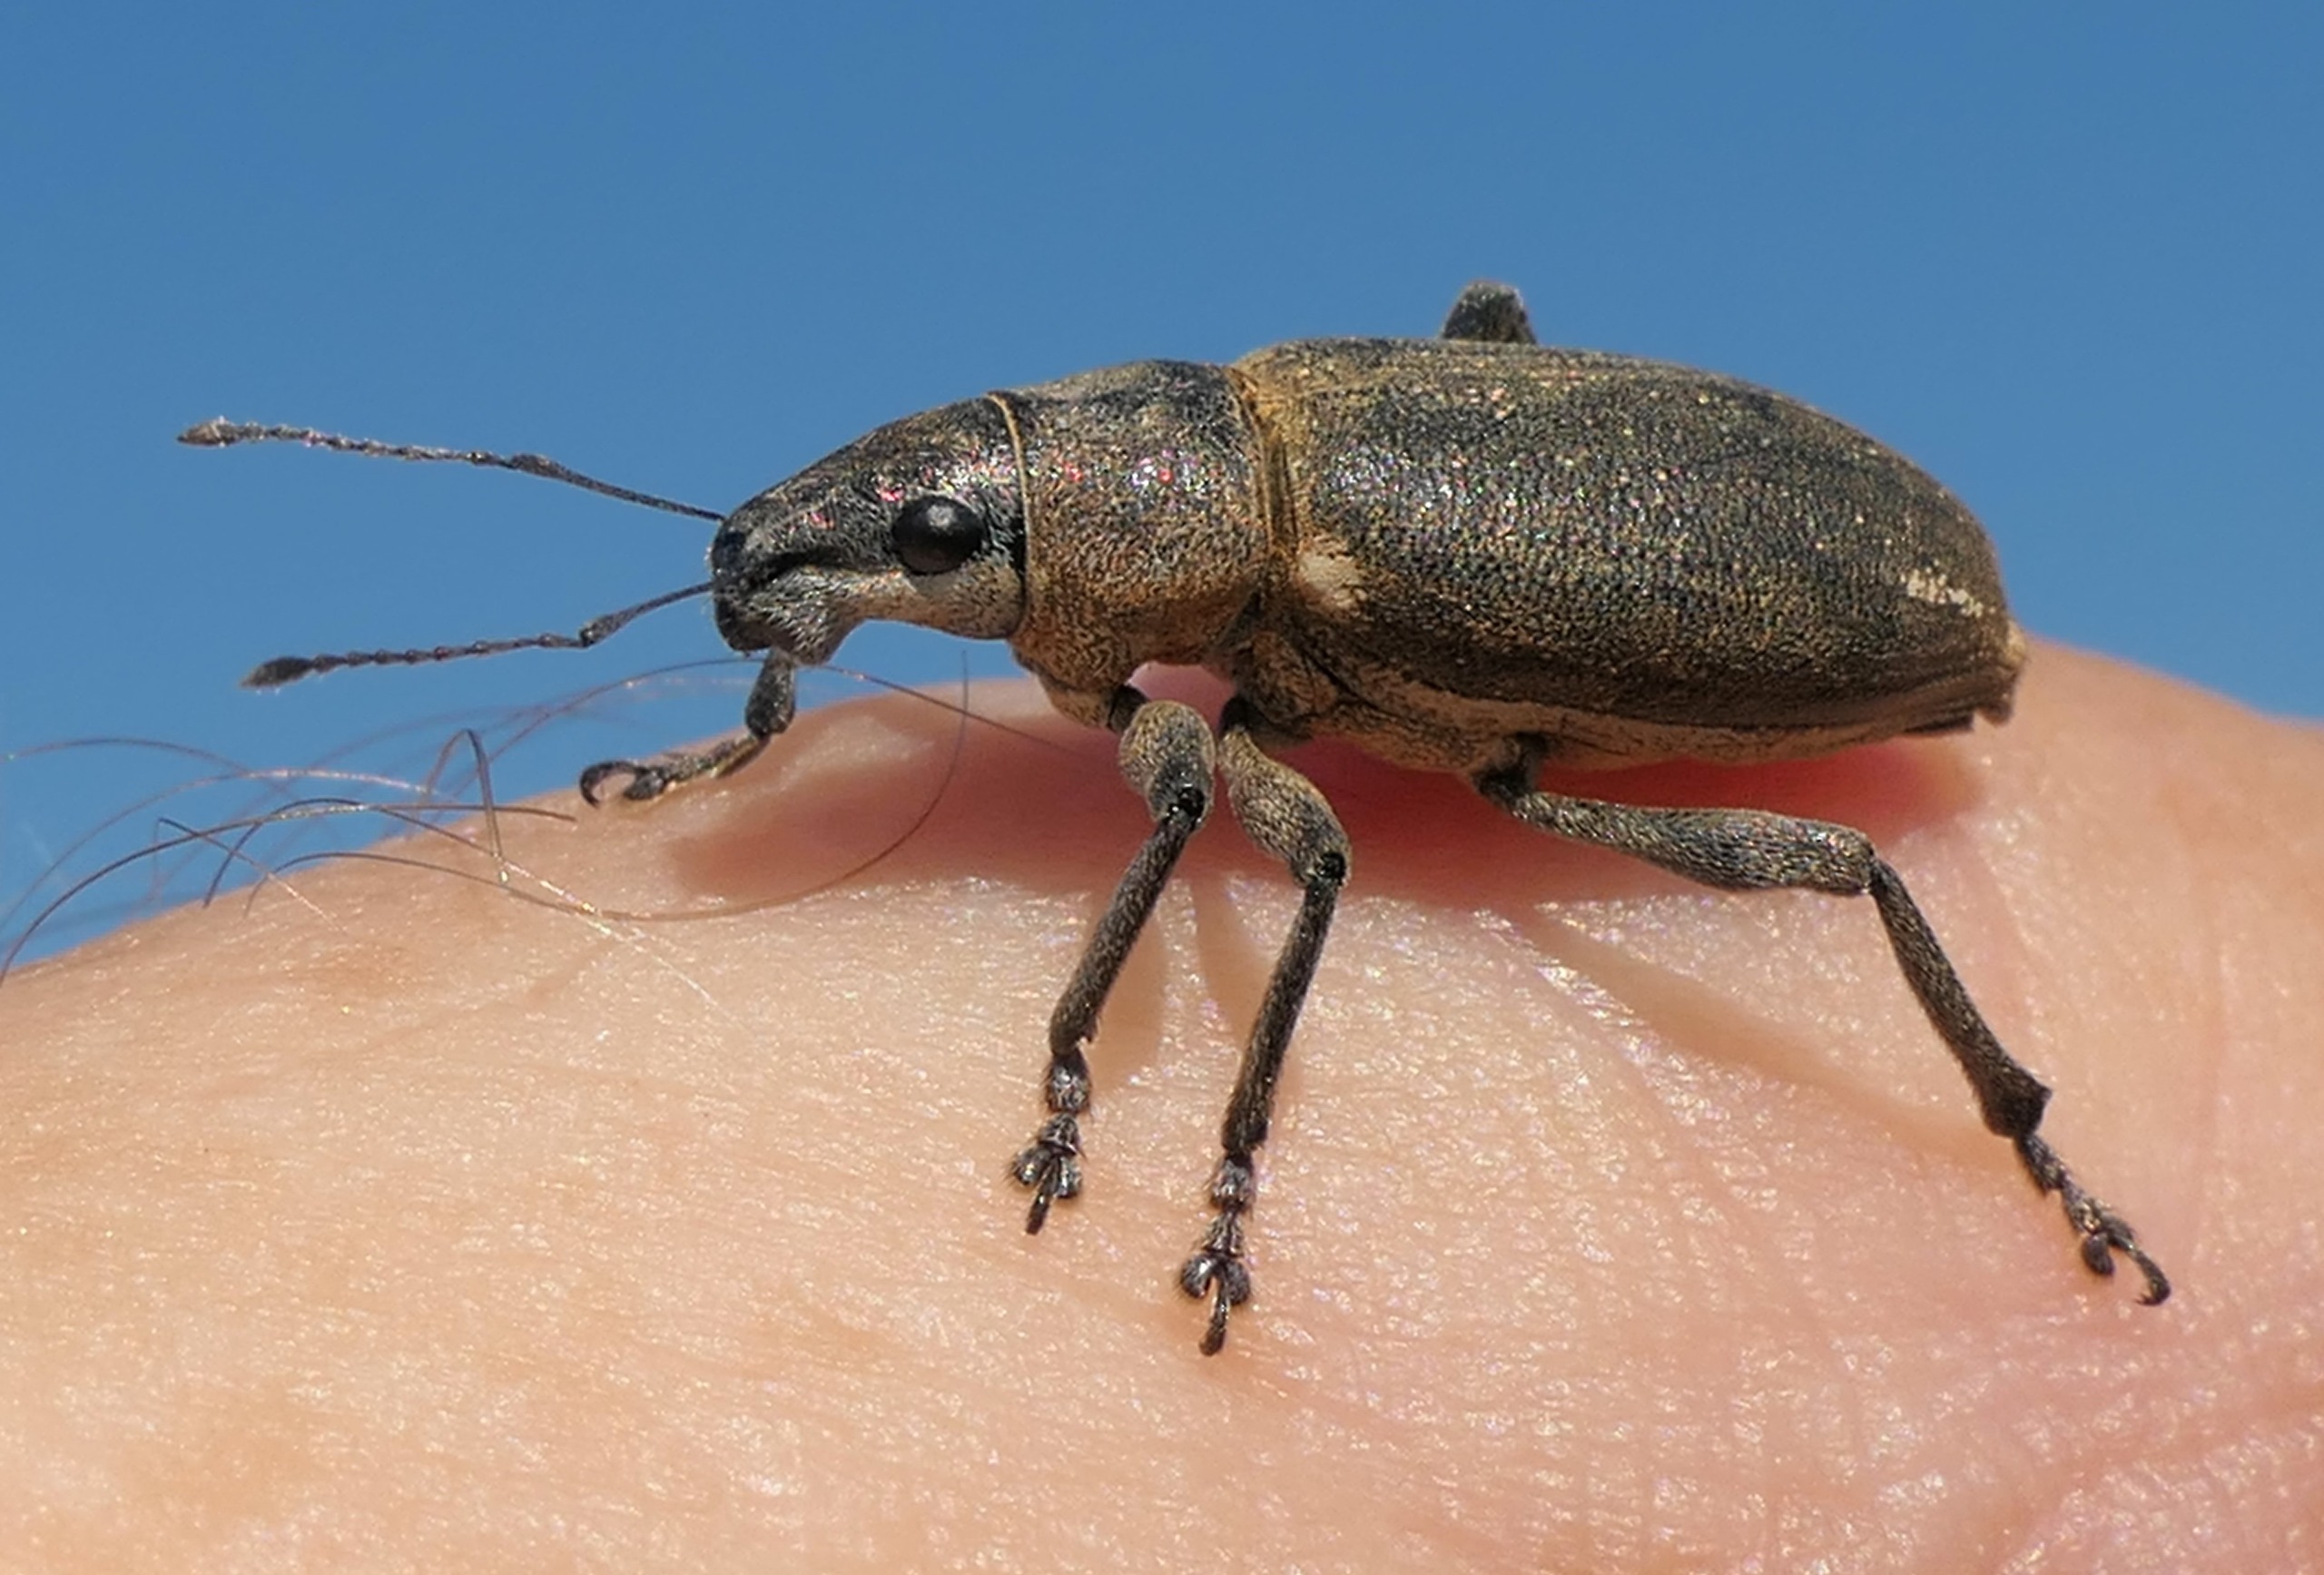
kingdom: Animalia
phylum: Arthropoda
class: Insecta
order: Coleoptera
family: Curculionidae
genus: Brachyderes
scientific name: Brachyderes lusitanicus
